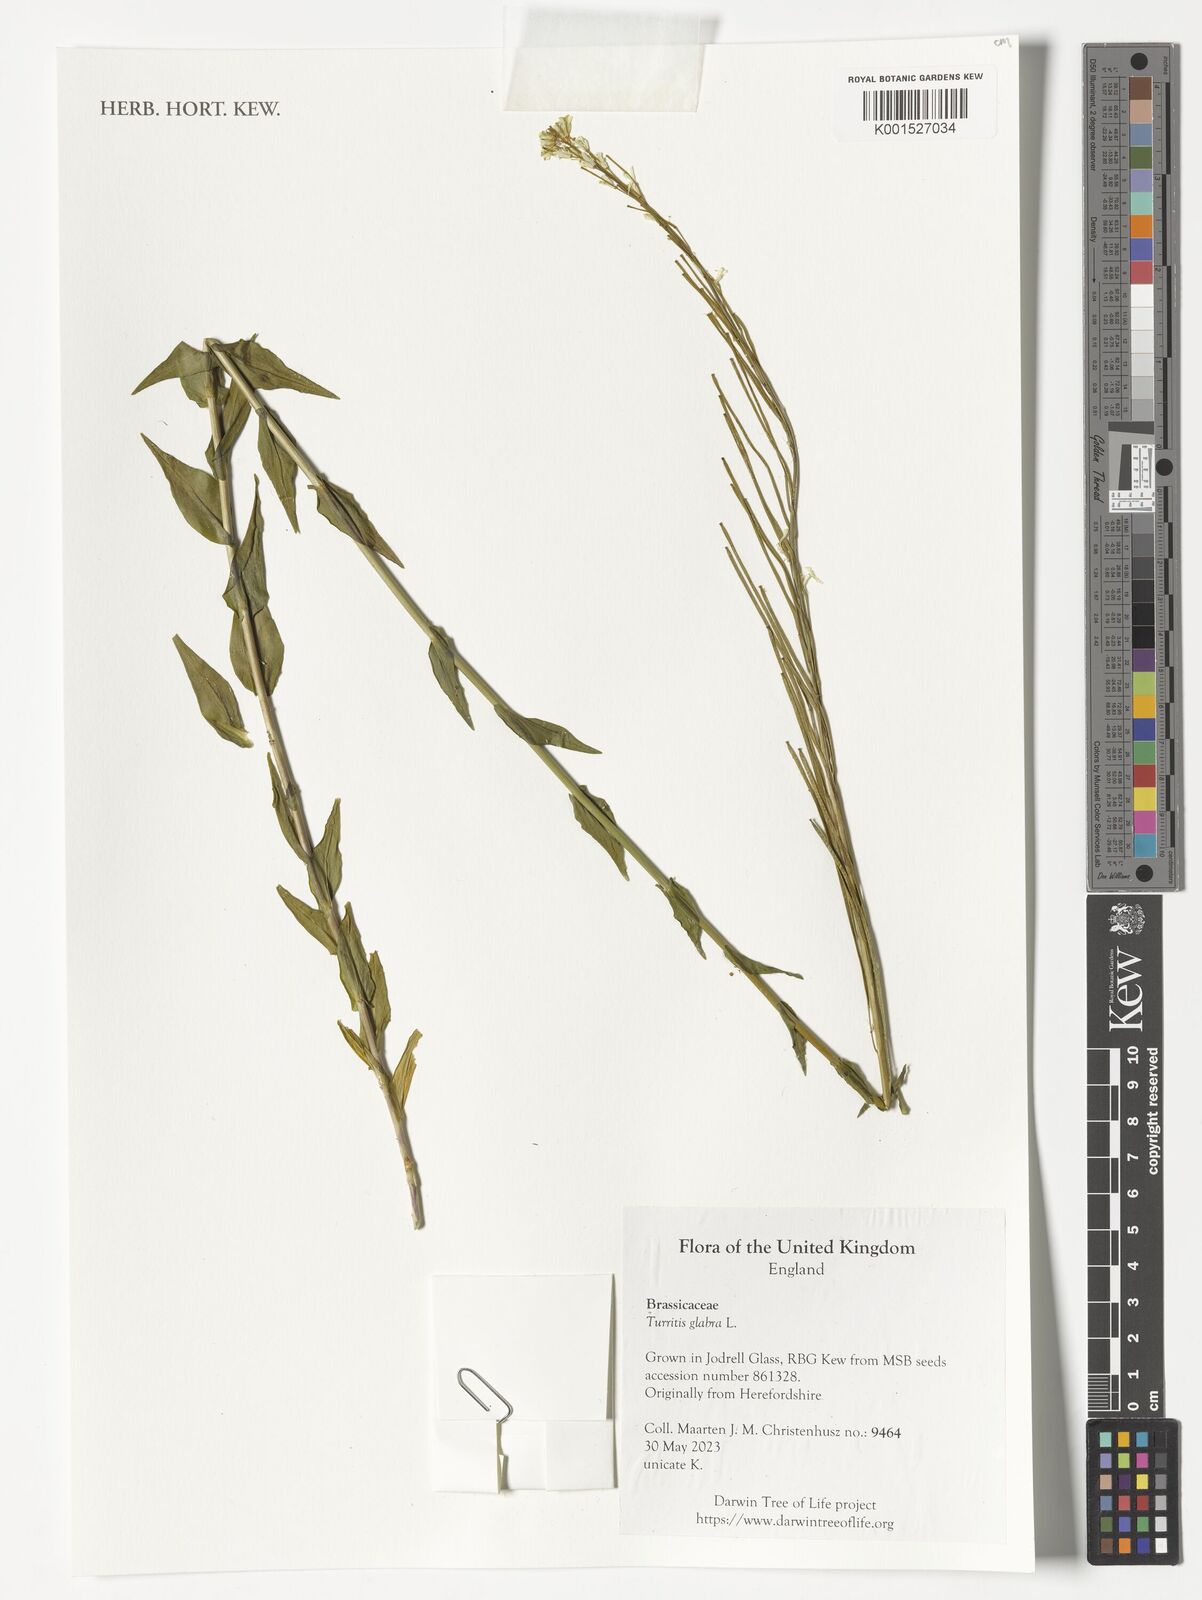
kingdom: Plantae
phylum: Tracheophyta
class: Magnoliopsida
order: Brassicales
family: Brassicaceae
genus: Turritis
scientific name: Turritis glabra
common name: Tower rockcress
